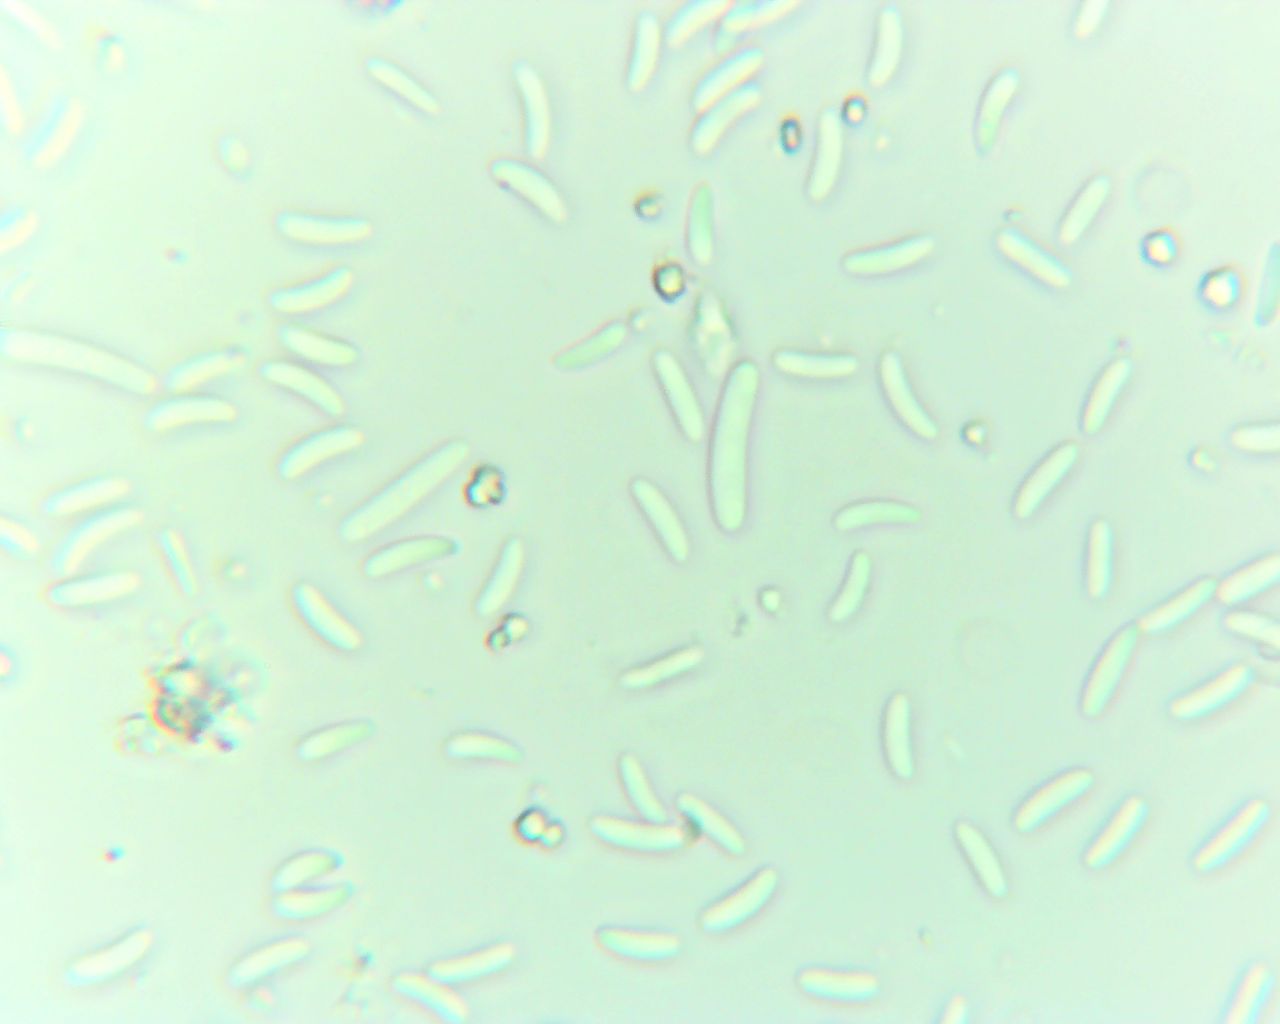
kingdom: Fungi
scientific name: Fungi
